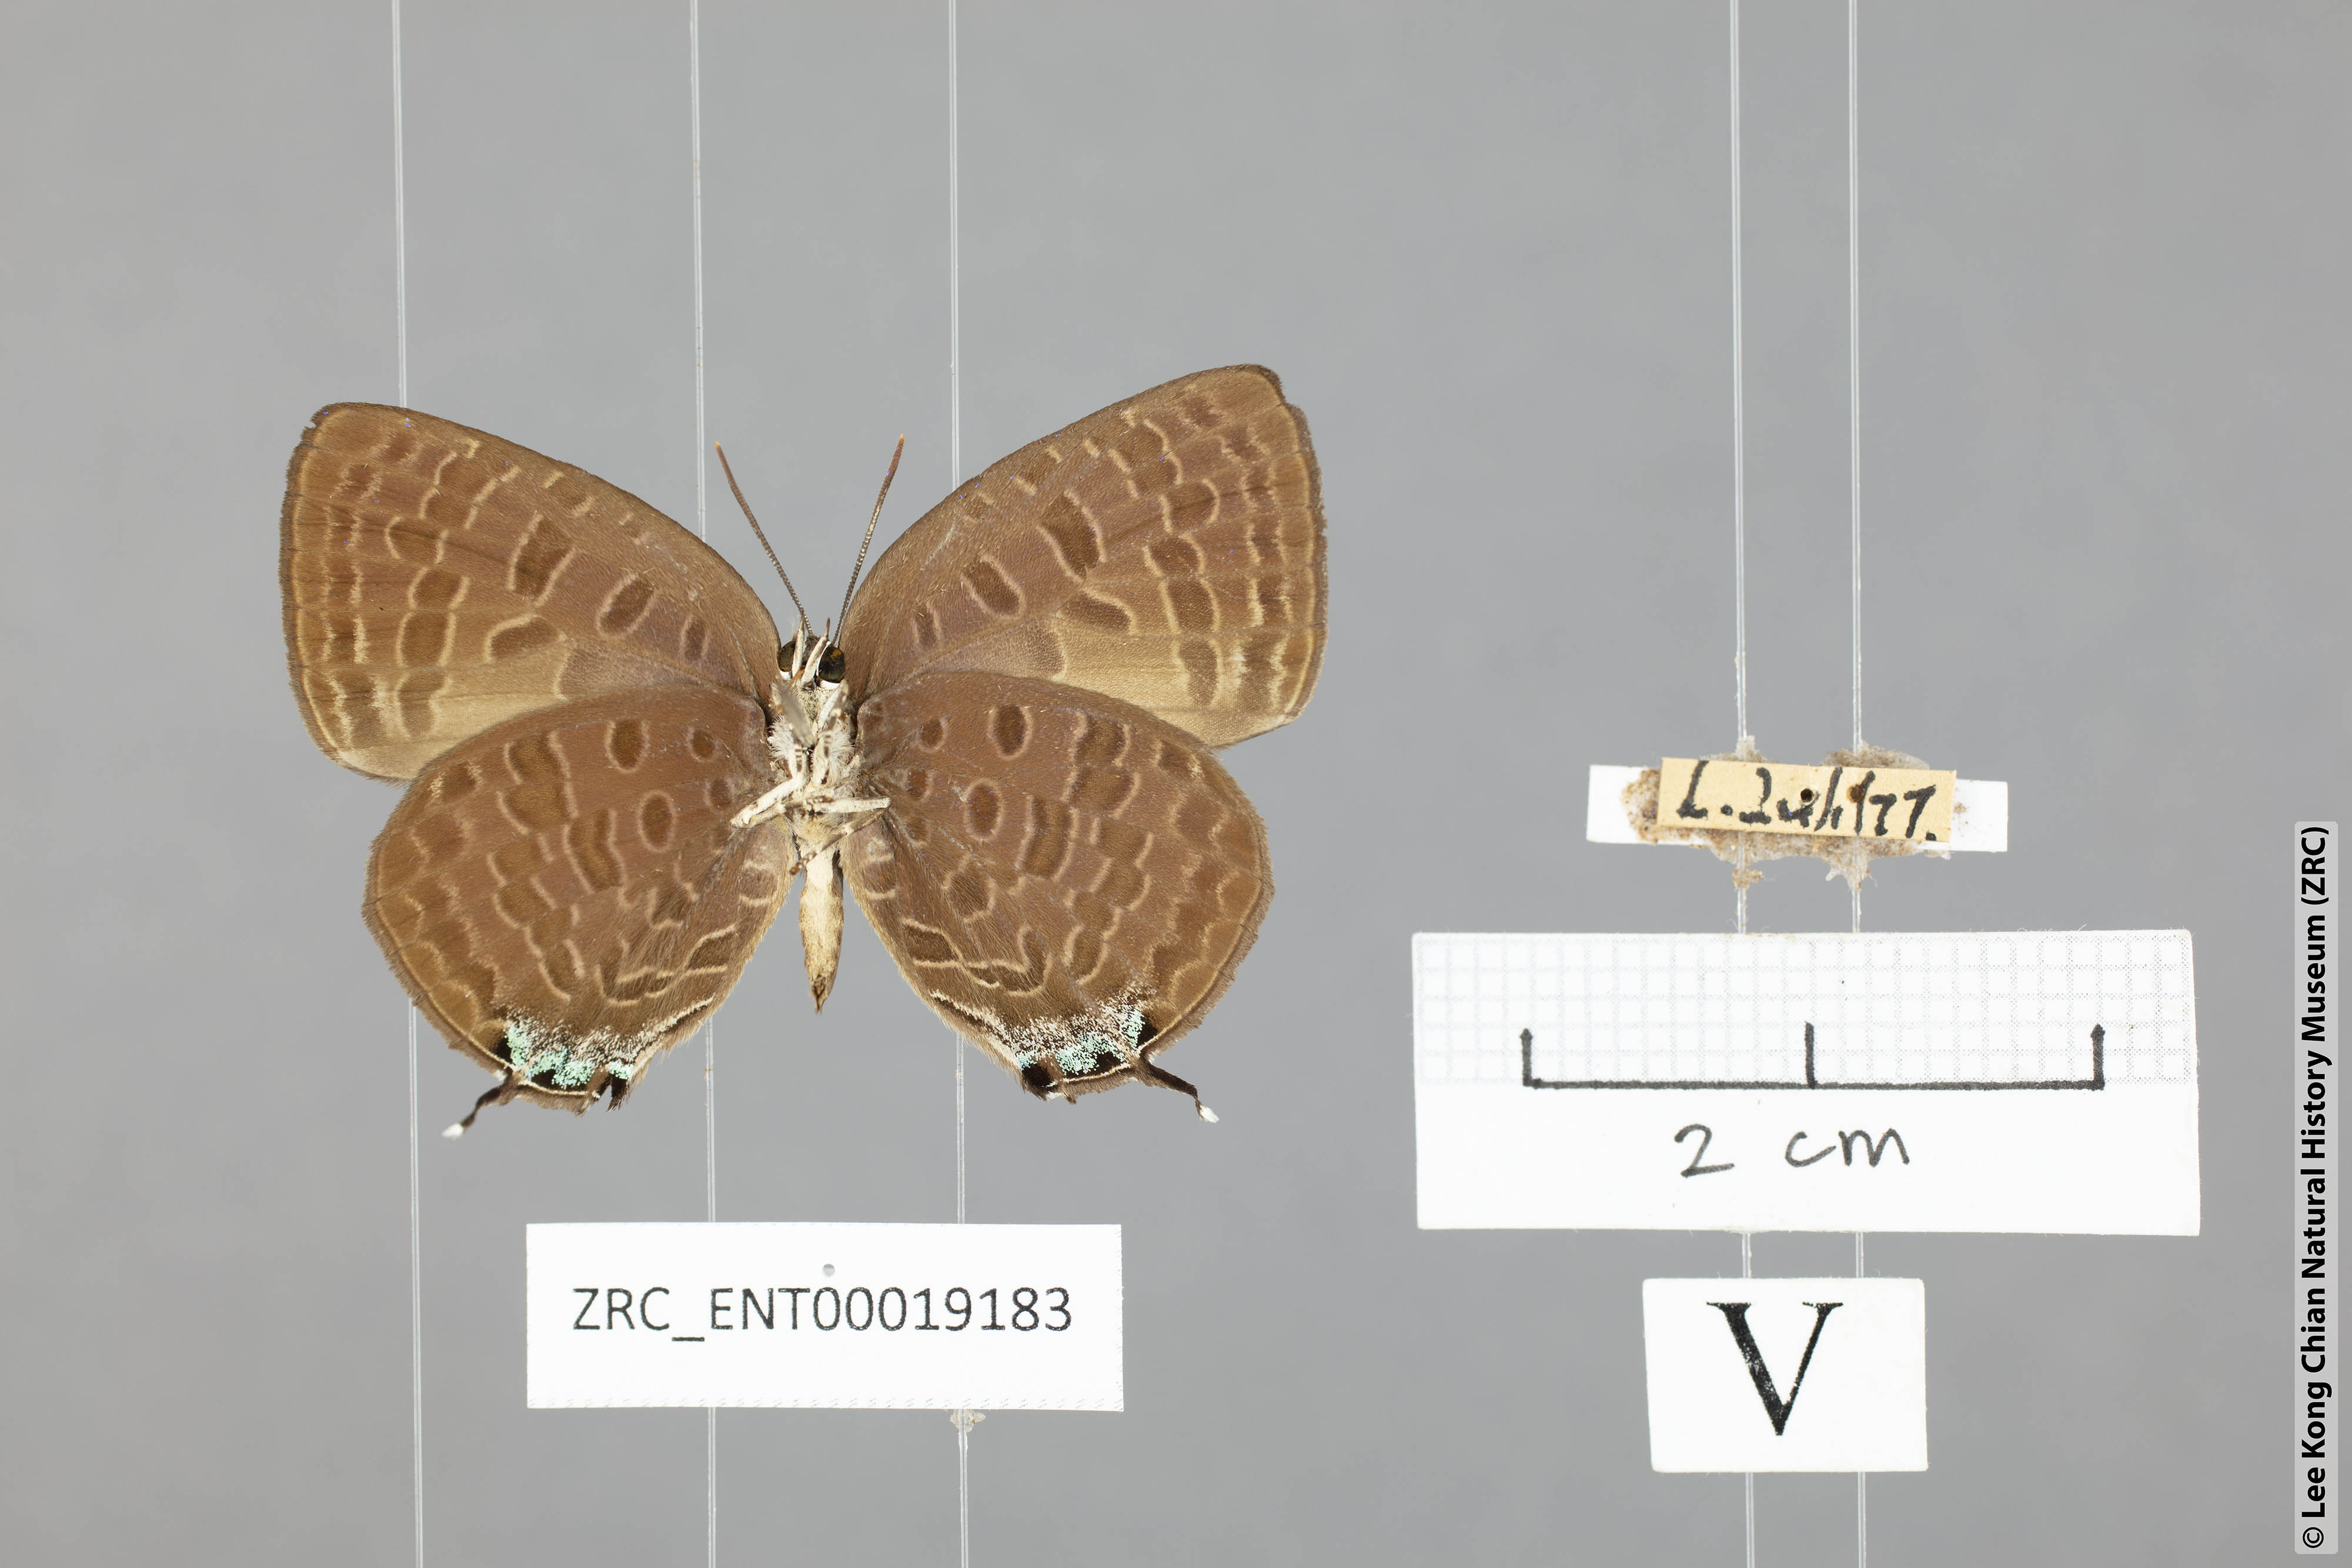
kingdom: Animalia
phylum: Arthropoda
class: Insecta
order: Lepidoptera
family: Lycaenidae
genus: Arhopala
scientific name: Arhopala ariana
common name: Pinkish-washed oakblue
